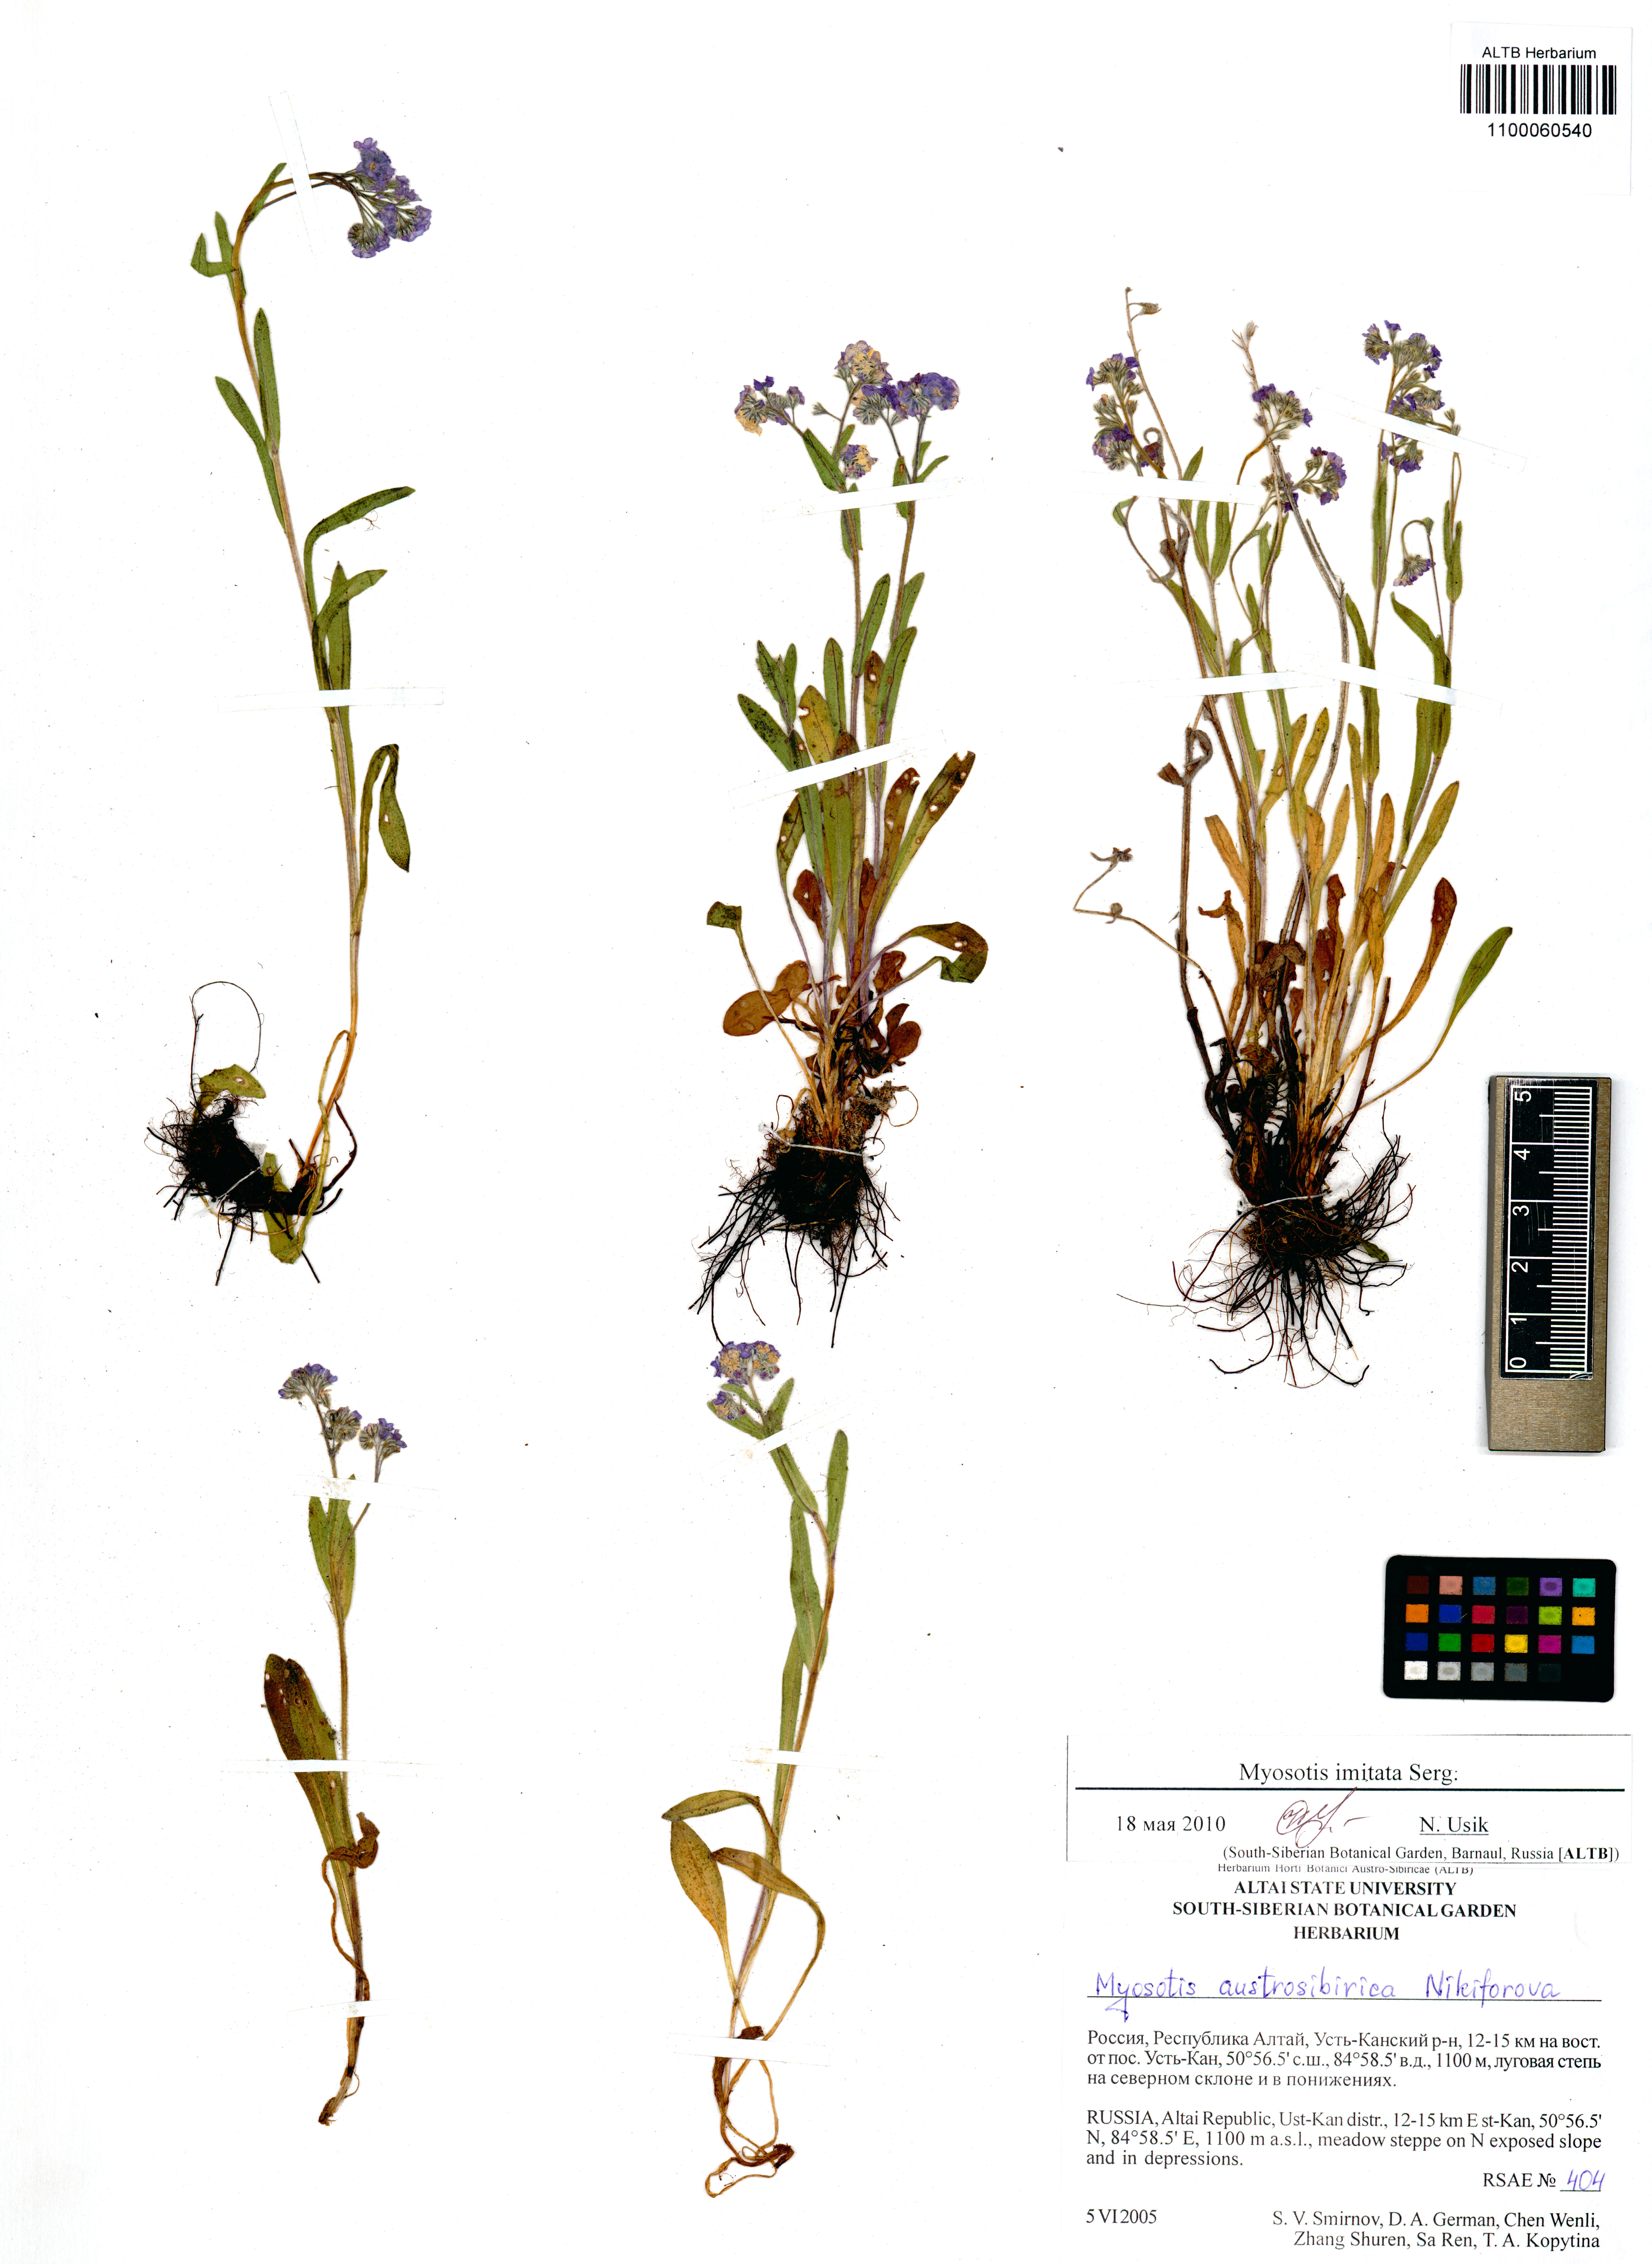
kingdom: Plantae
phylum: Tracheophyta
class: Magnoliopsida
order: Boraginales
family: Boraginaceae
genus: Myosotis
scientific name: Myosotis imitata
